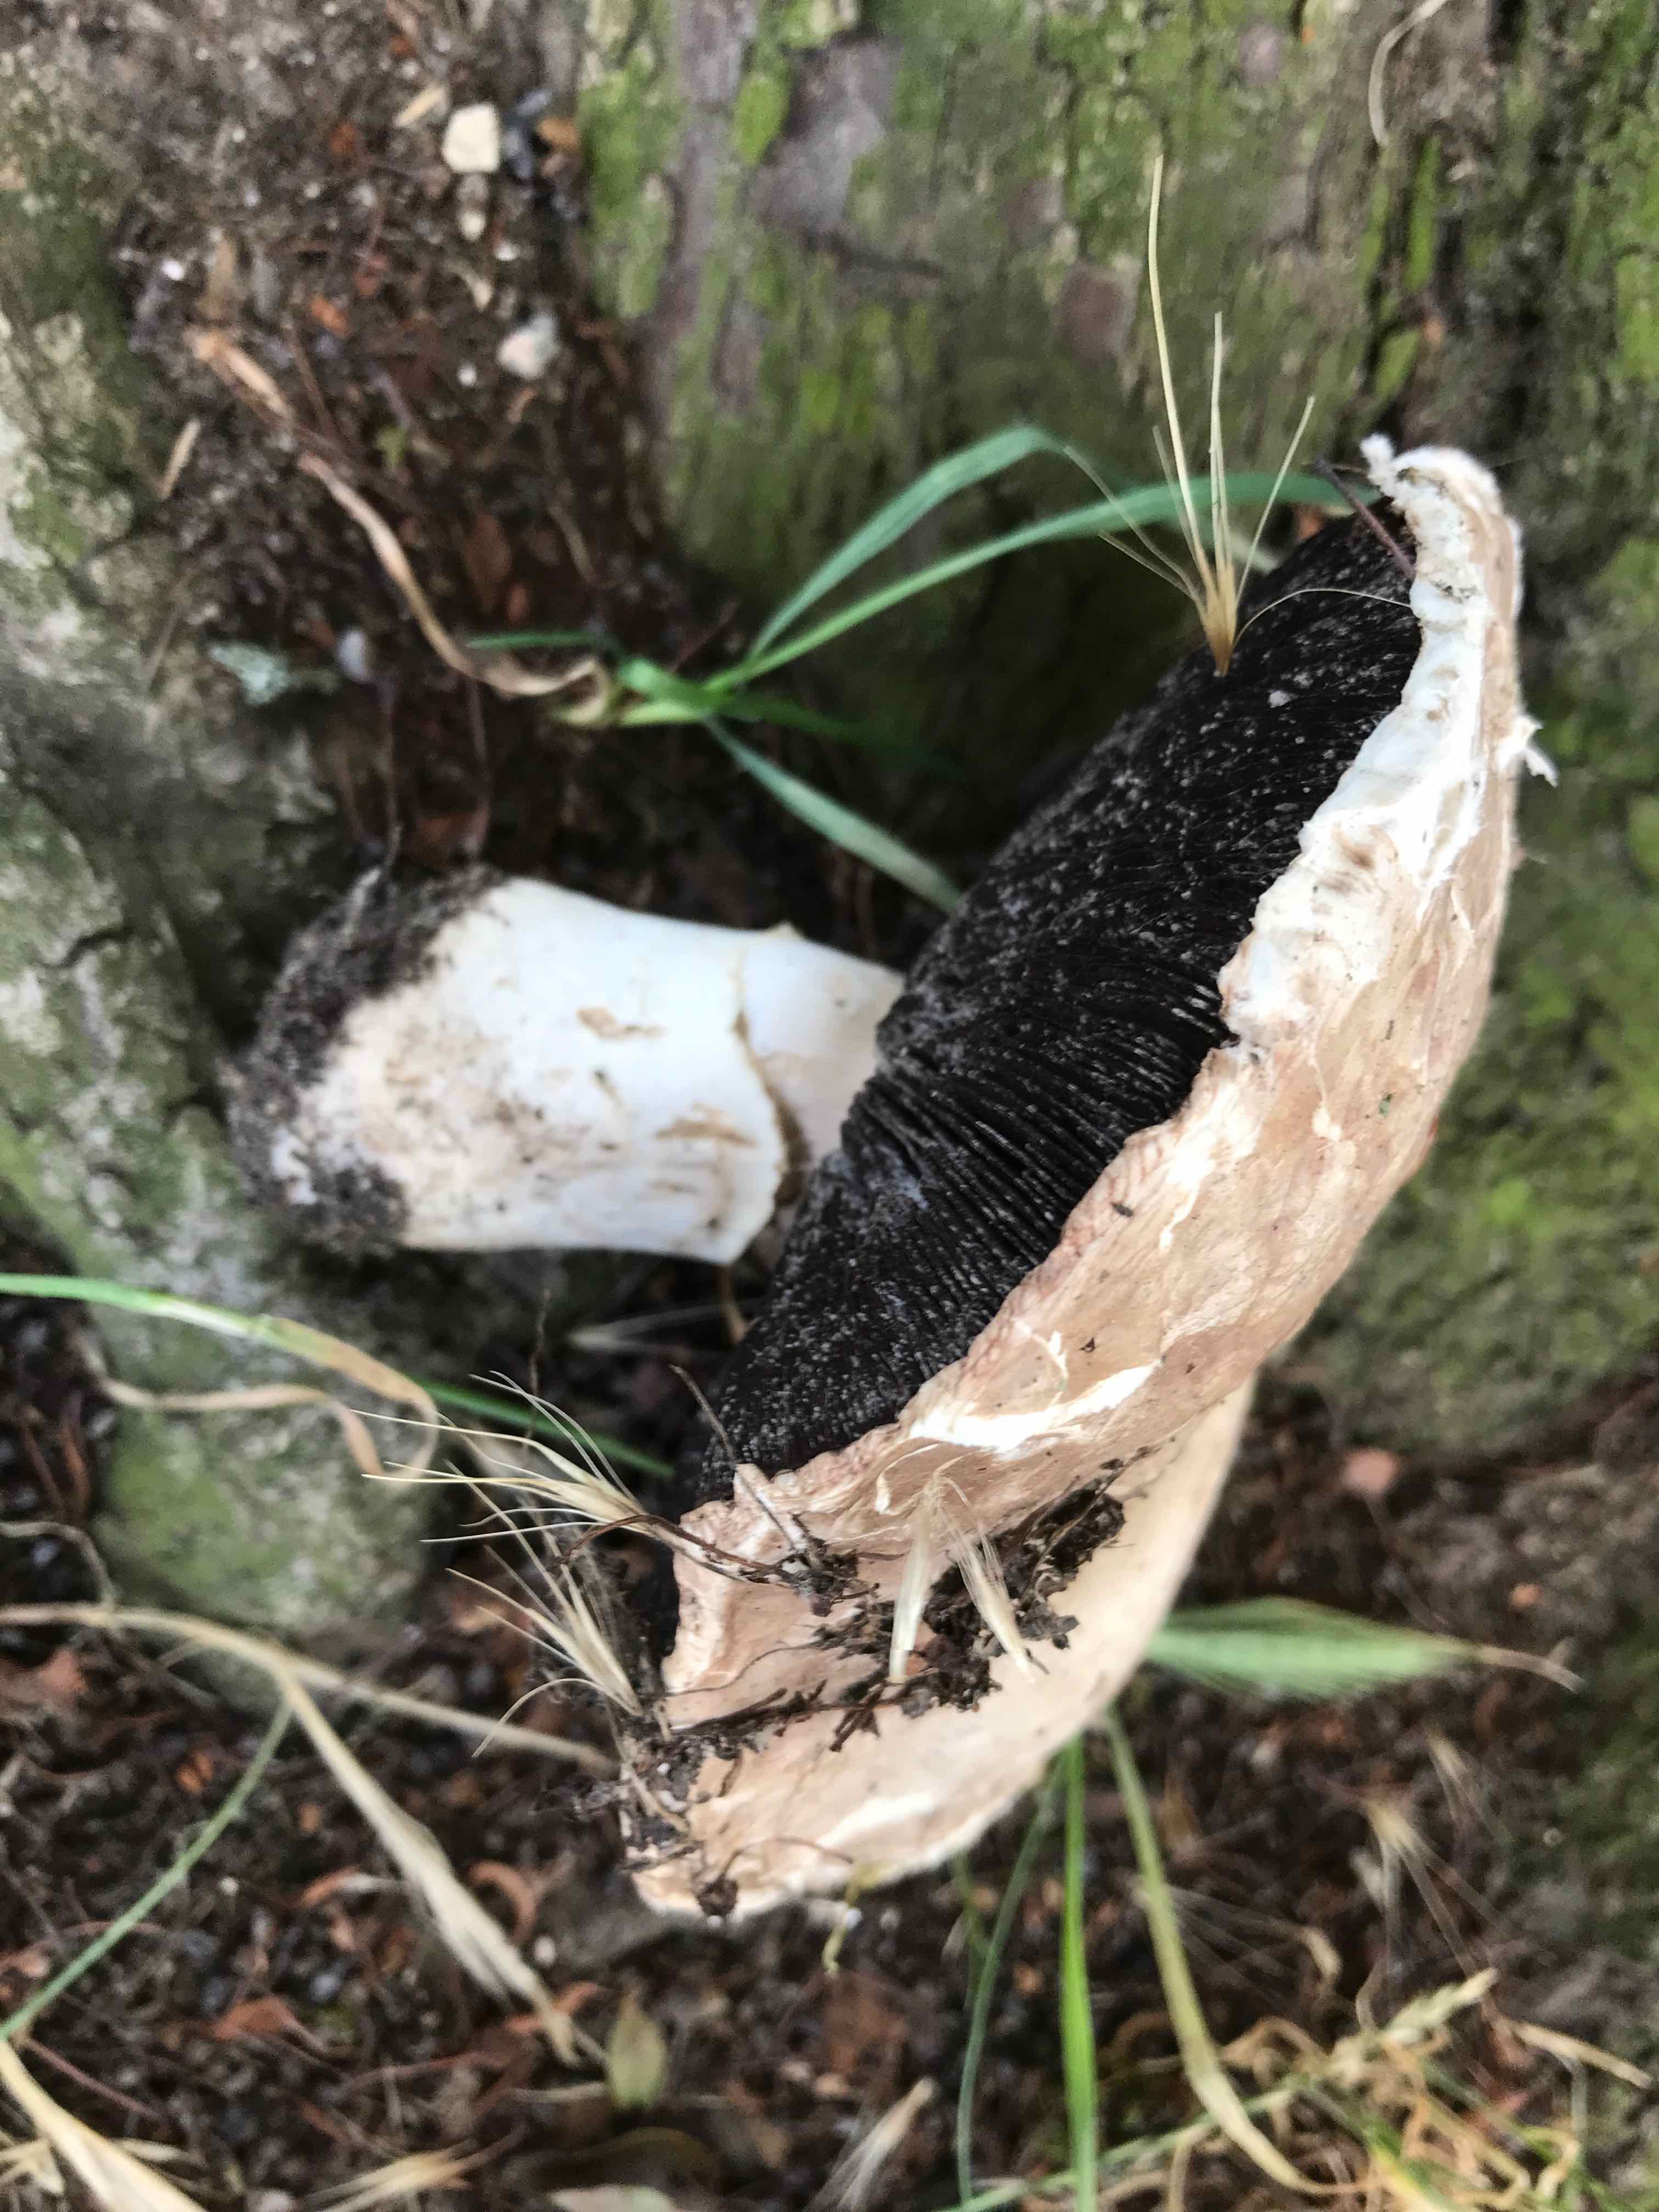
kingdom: Fungi
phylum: Basidiomycota
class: Agaricomycetes
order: Agaricales
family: Agaricaceae
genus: Agaricus
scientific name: Agaricus bitorquis
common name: vej-champignon
